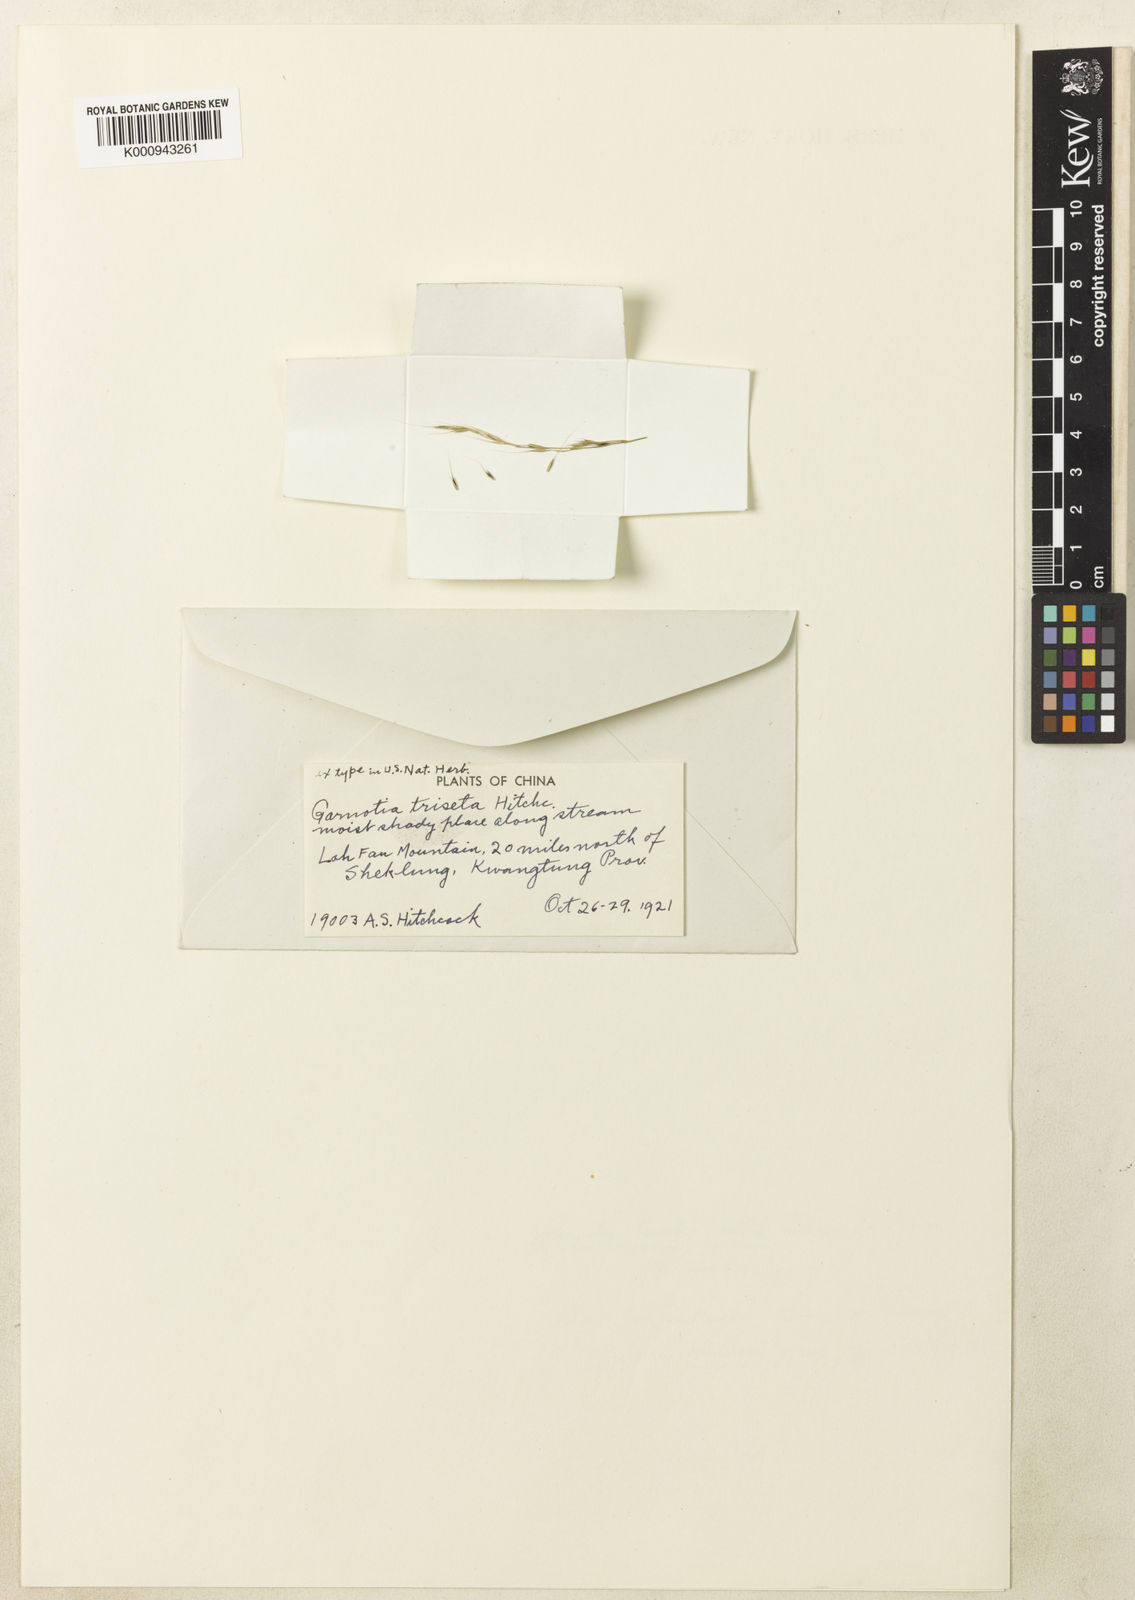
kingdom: Plantae
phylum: Tracheophyta
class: Liliopsida
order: Poales
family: Poaceae
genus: Garnotia
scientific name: Garnotia tenella
